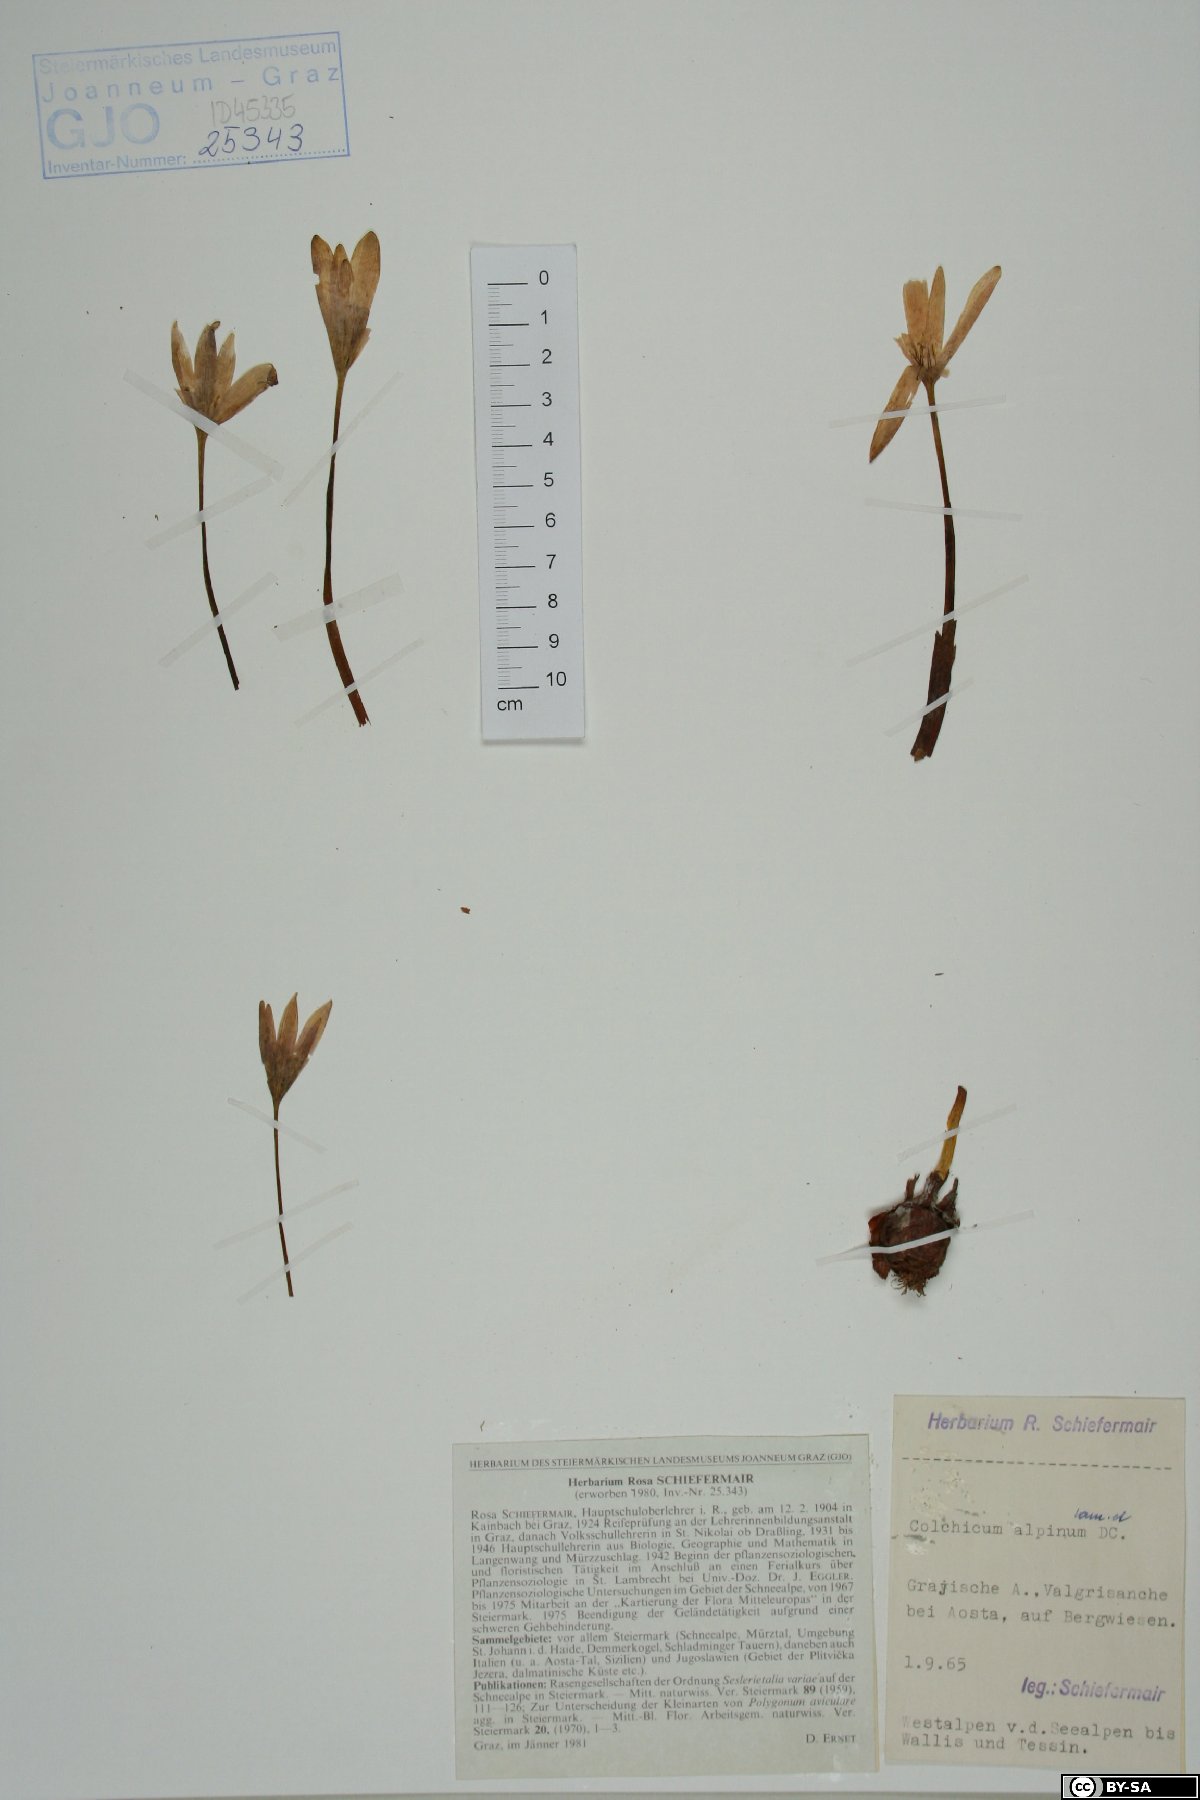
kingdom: Plantae
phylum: Tracheophyta
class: Liliopsida
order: Liliales
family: Colchicaceae
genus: Colchicum
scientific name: Colchicum alpinum
